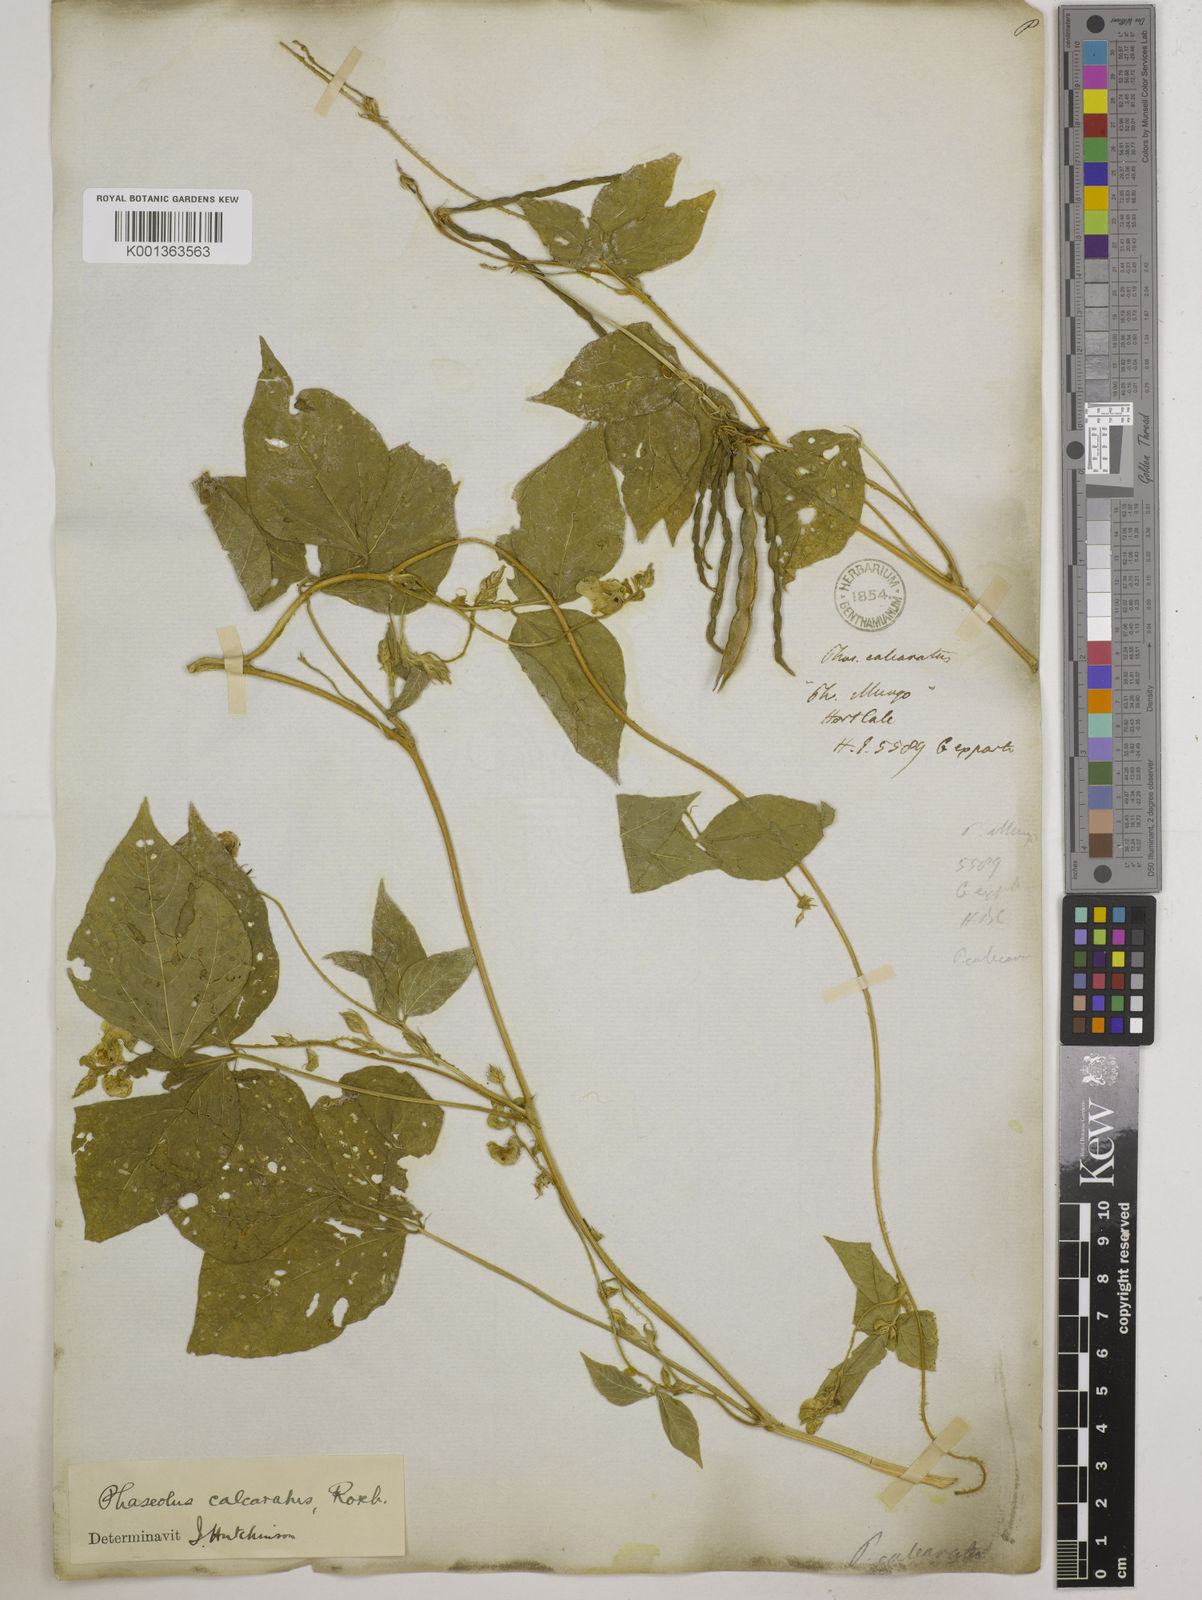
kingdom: Plantae
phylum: Tracheophyta
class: Magnoliopsida
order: Fabales
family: Fabaceae
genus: Vigna
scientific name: Vigna umbellata
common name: Oriental-bean
